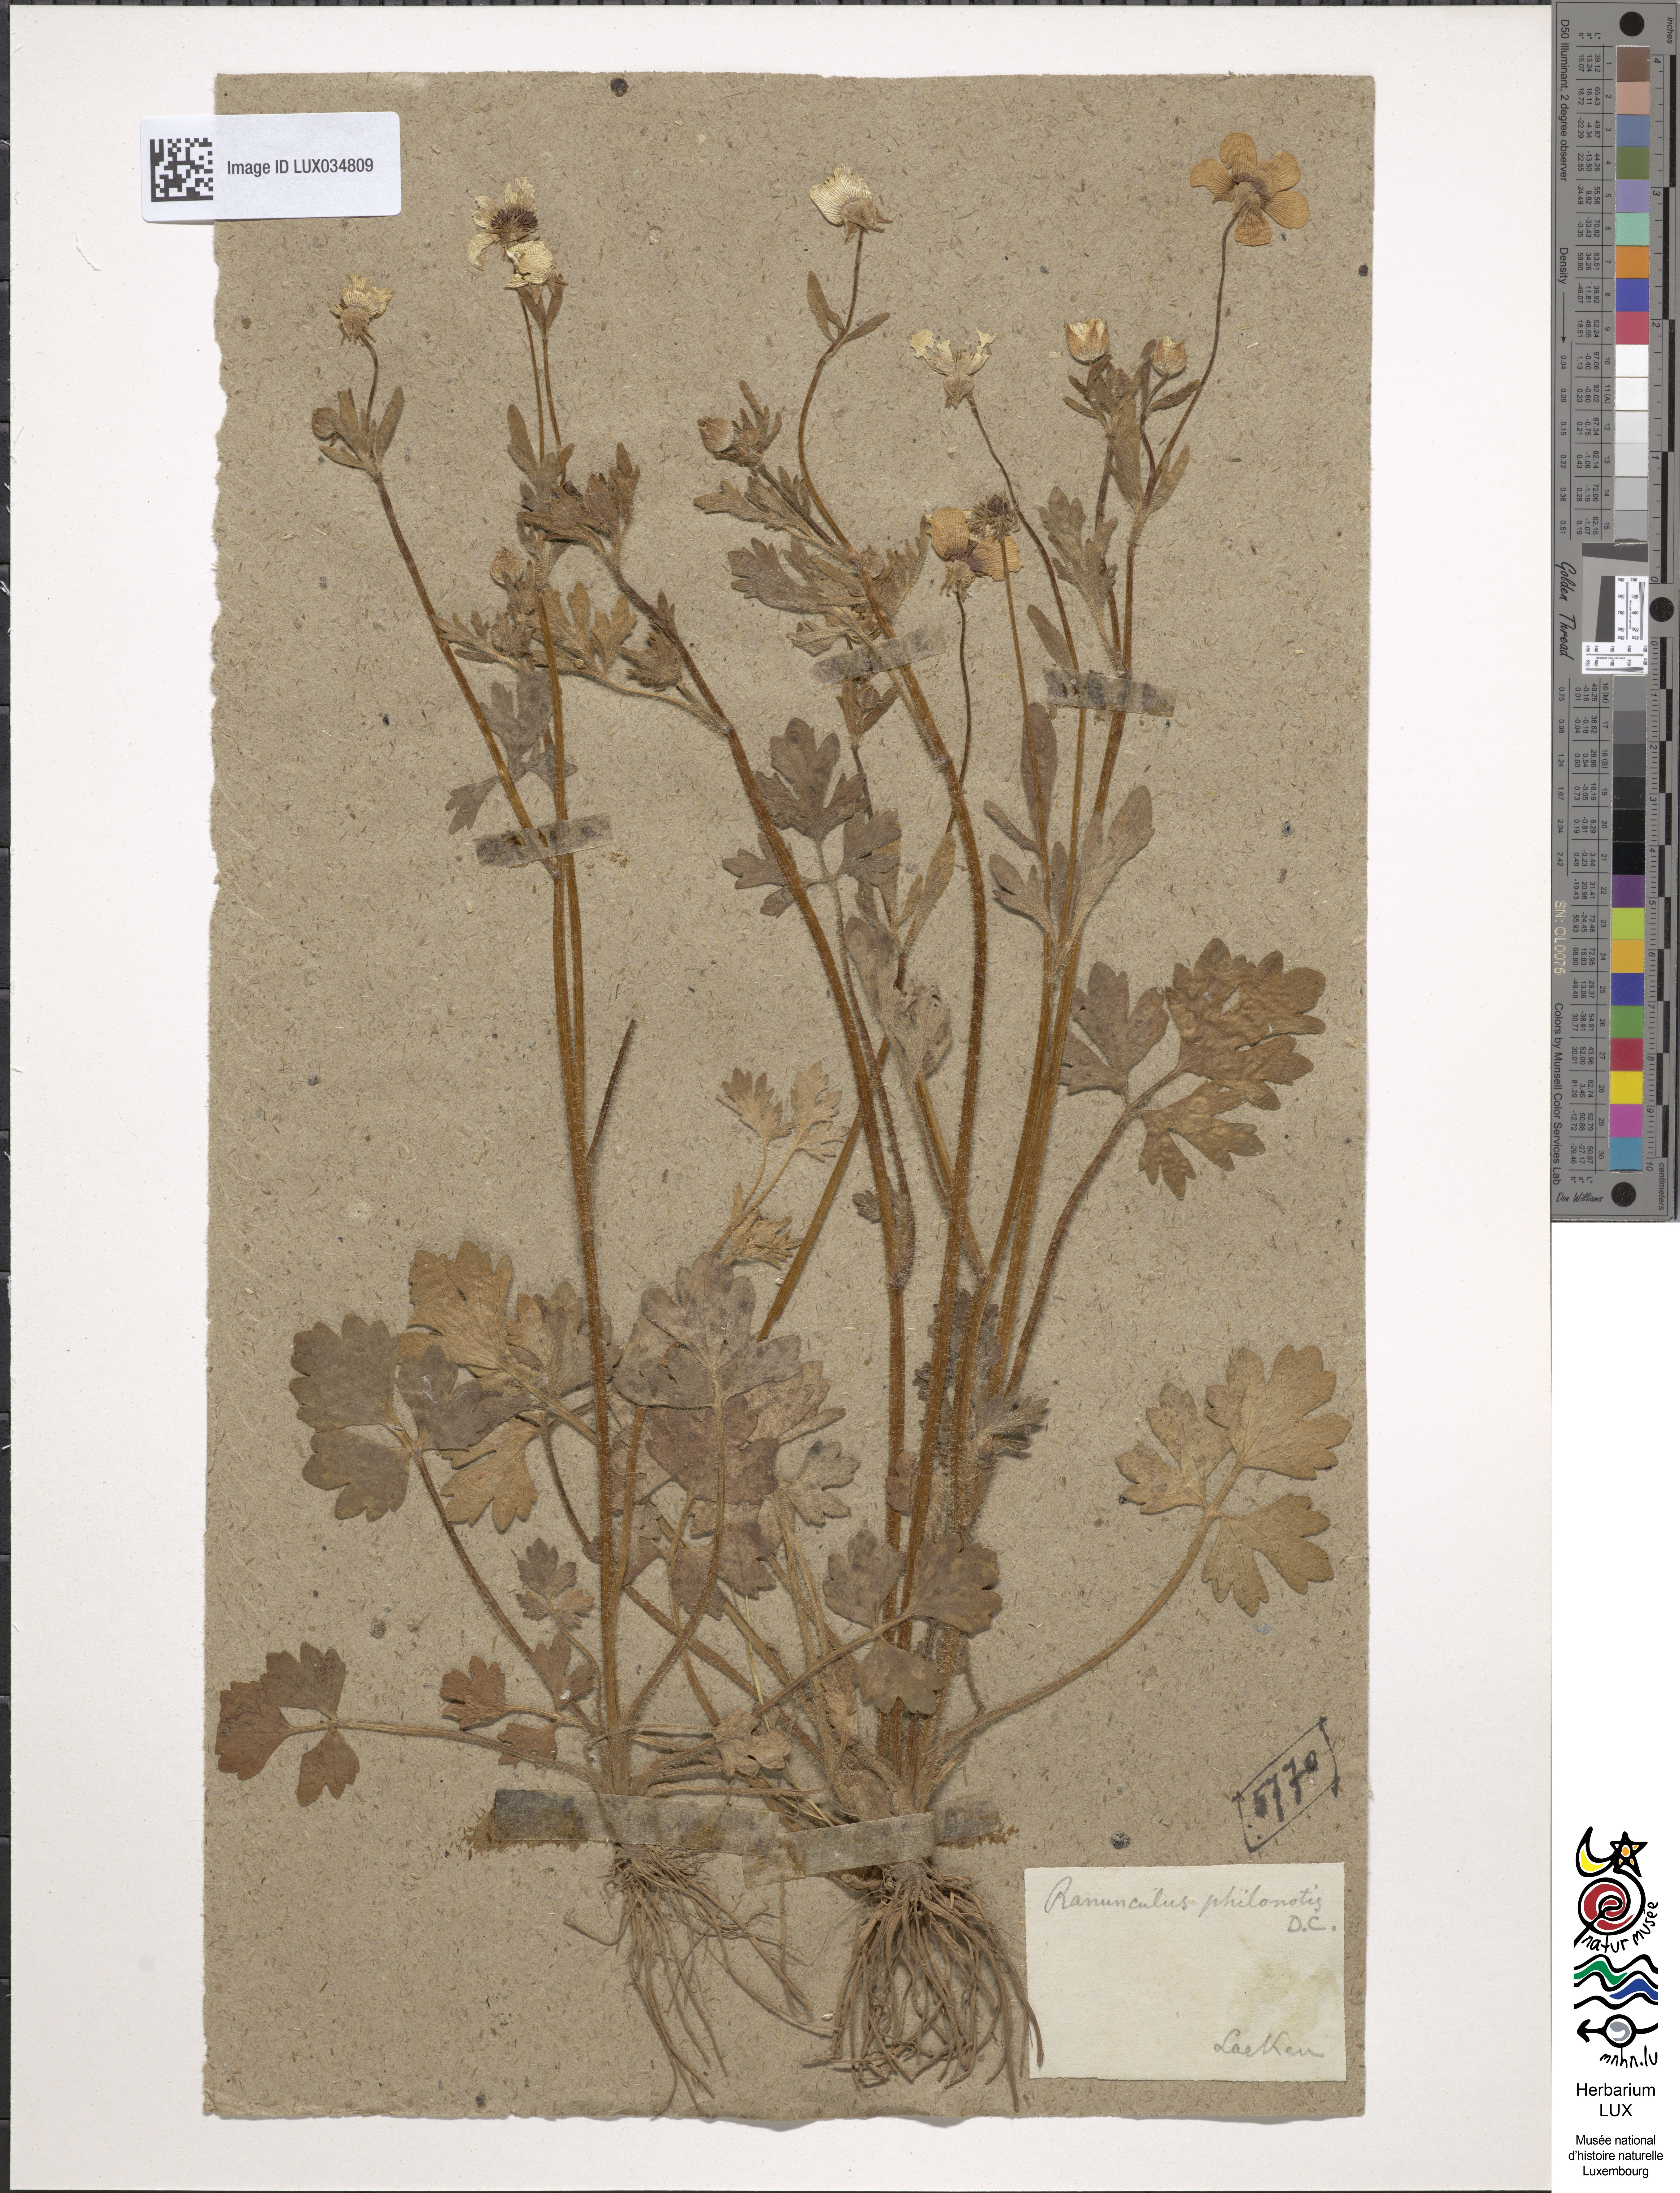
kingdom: Plantae
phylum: Tracheophyta
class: Magnoliopsida
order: Ranunculales
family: Ranunculaceae
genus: Ranunculus
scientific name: Ranunculus sardous
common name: Hairy buttercup
